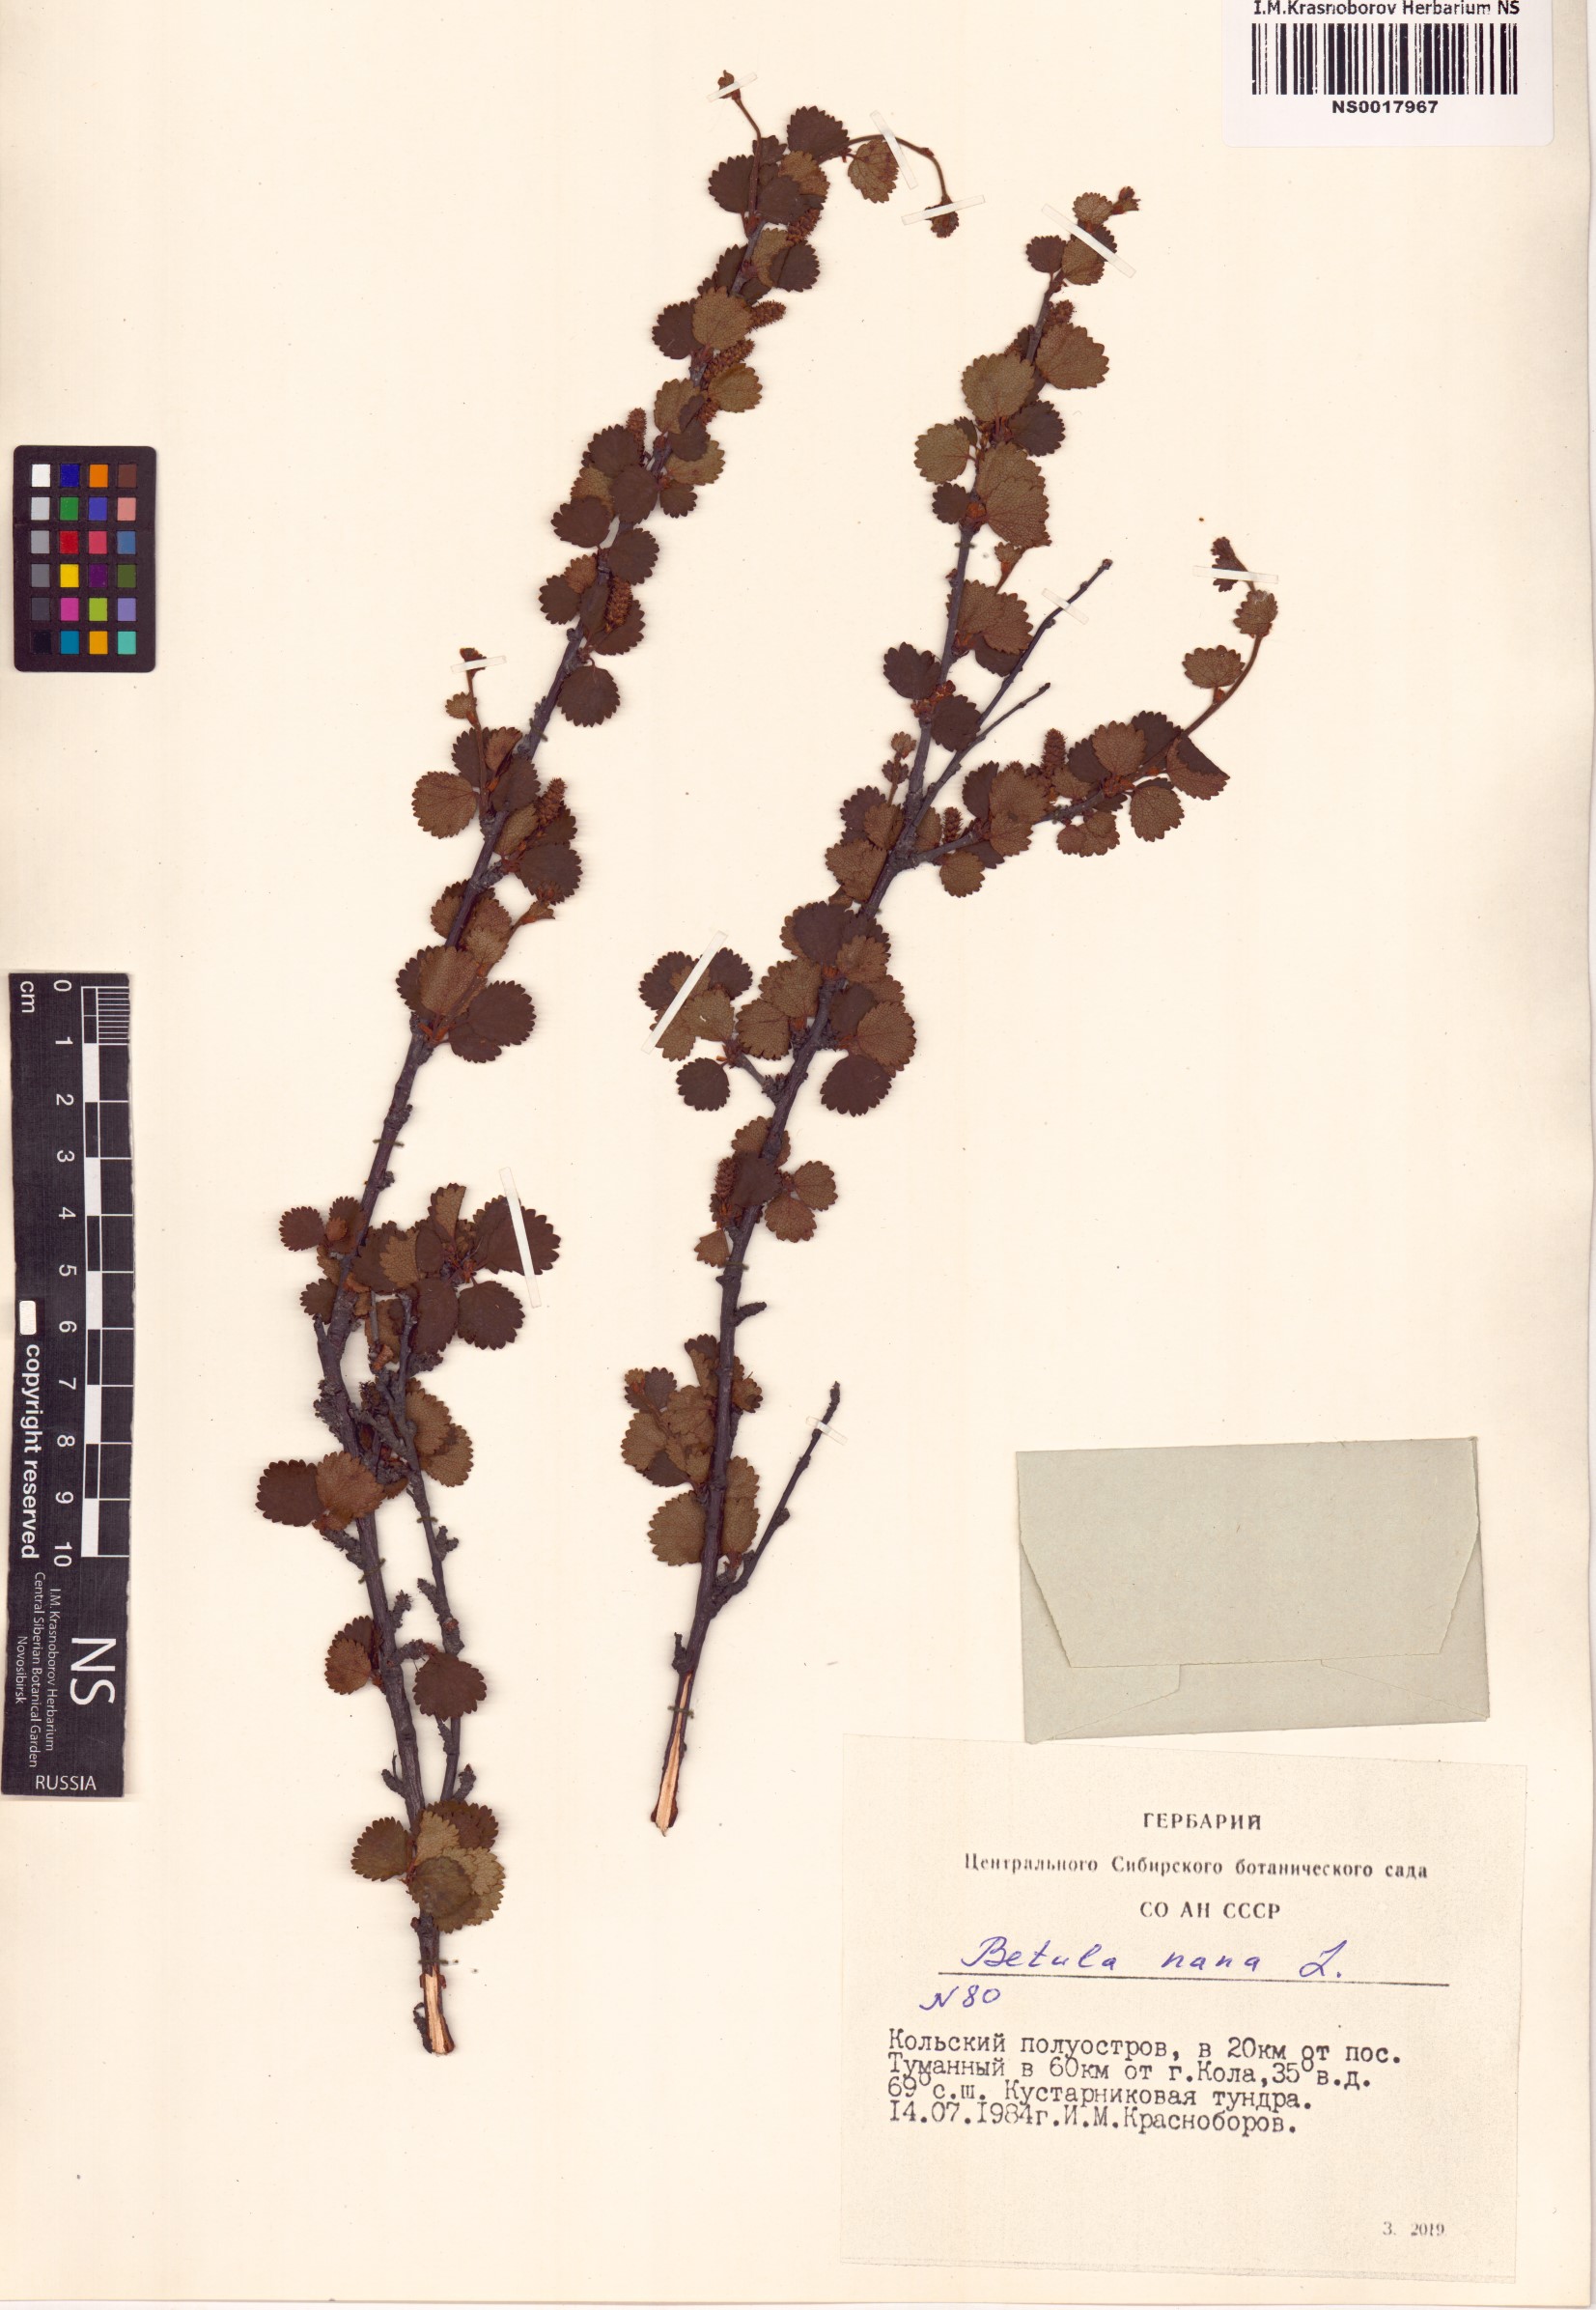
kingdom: Plantae
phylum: Tracheophyta
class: Magnoliopsida
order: Fagales
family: Betulaceae
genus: Betula
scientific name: Betula nana
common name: Arctic dwarf birch
